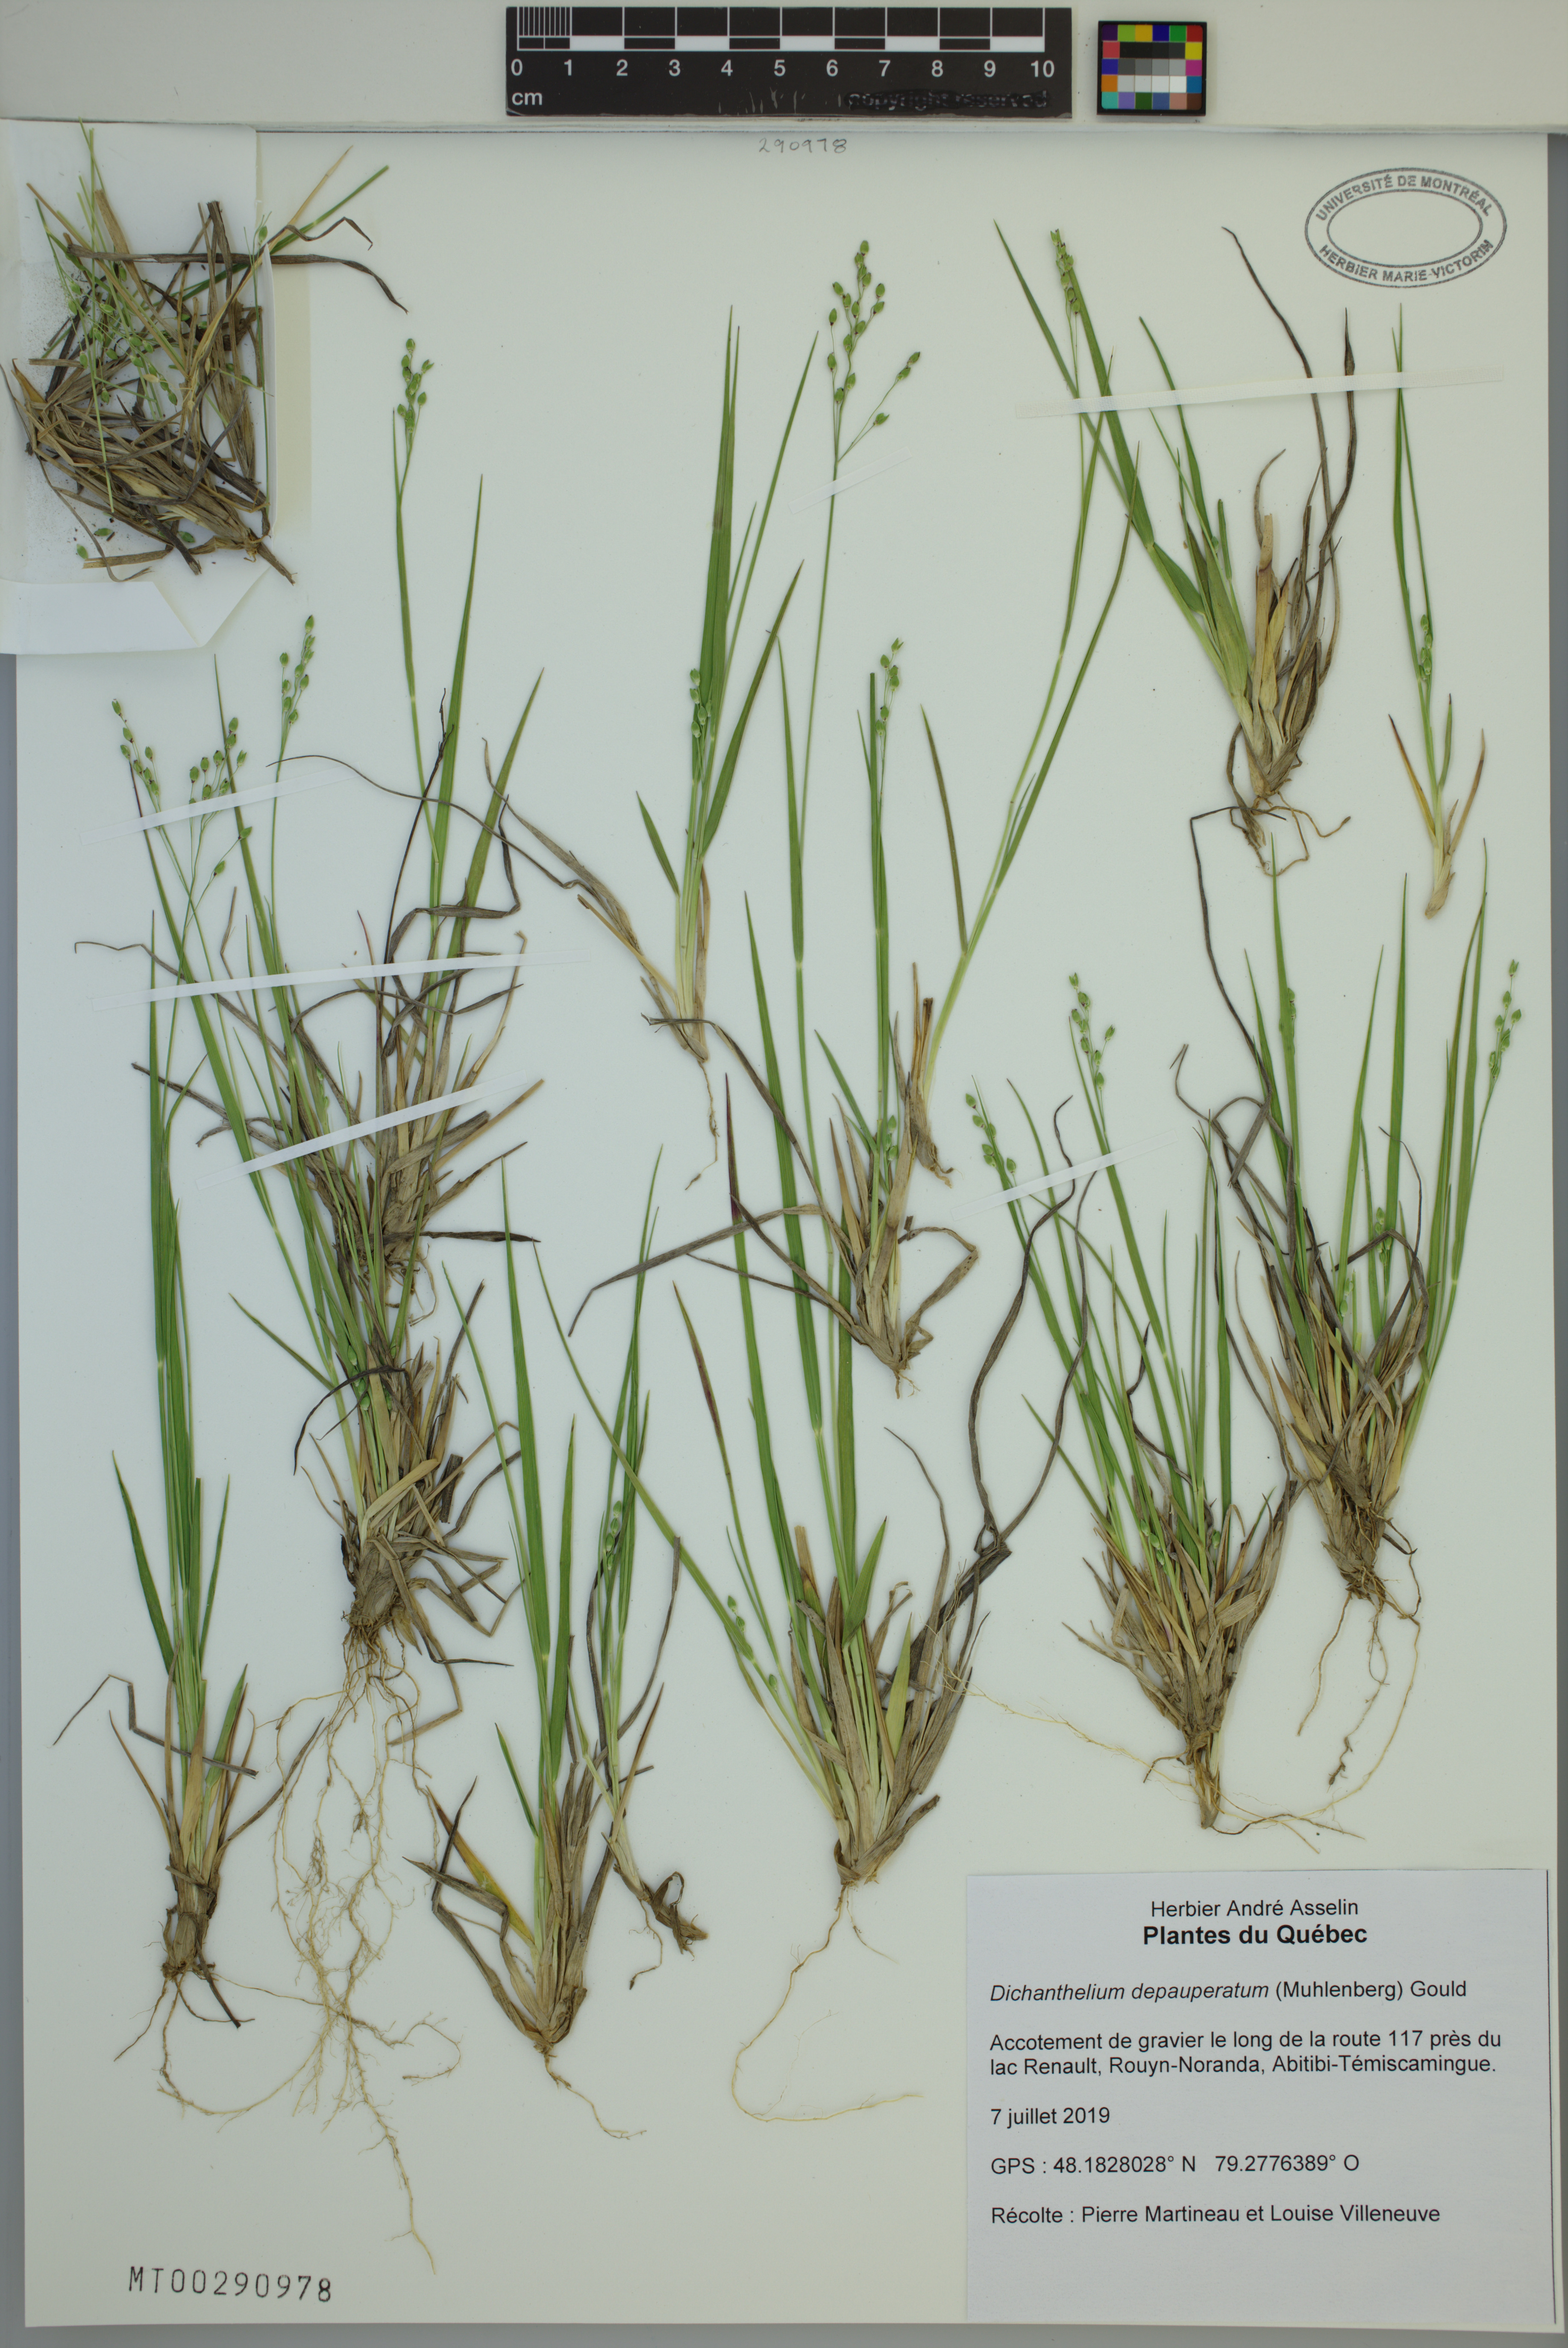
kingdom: Plantae
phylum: Tracheophyta
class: Liliopsida
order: Poales
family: Poaceae
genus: Dichanthelium
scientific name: Dichanthelium depauperatum
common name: Depauperate panicgrass
